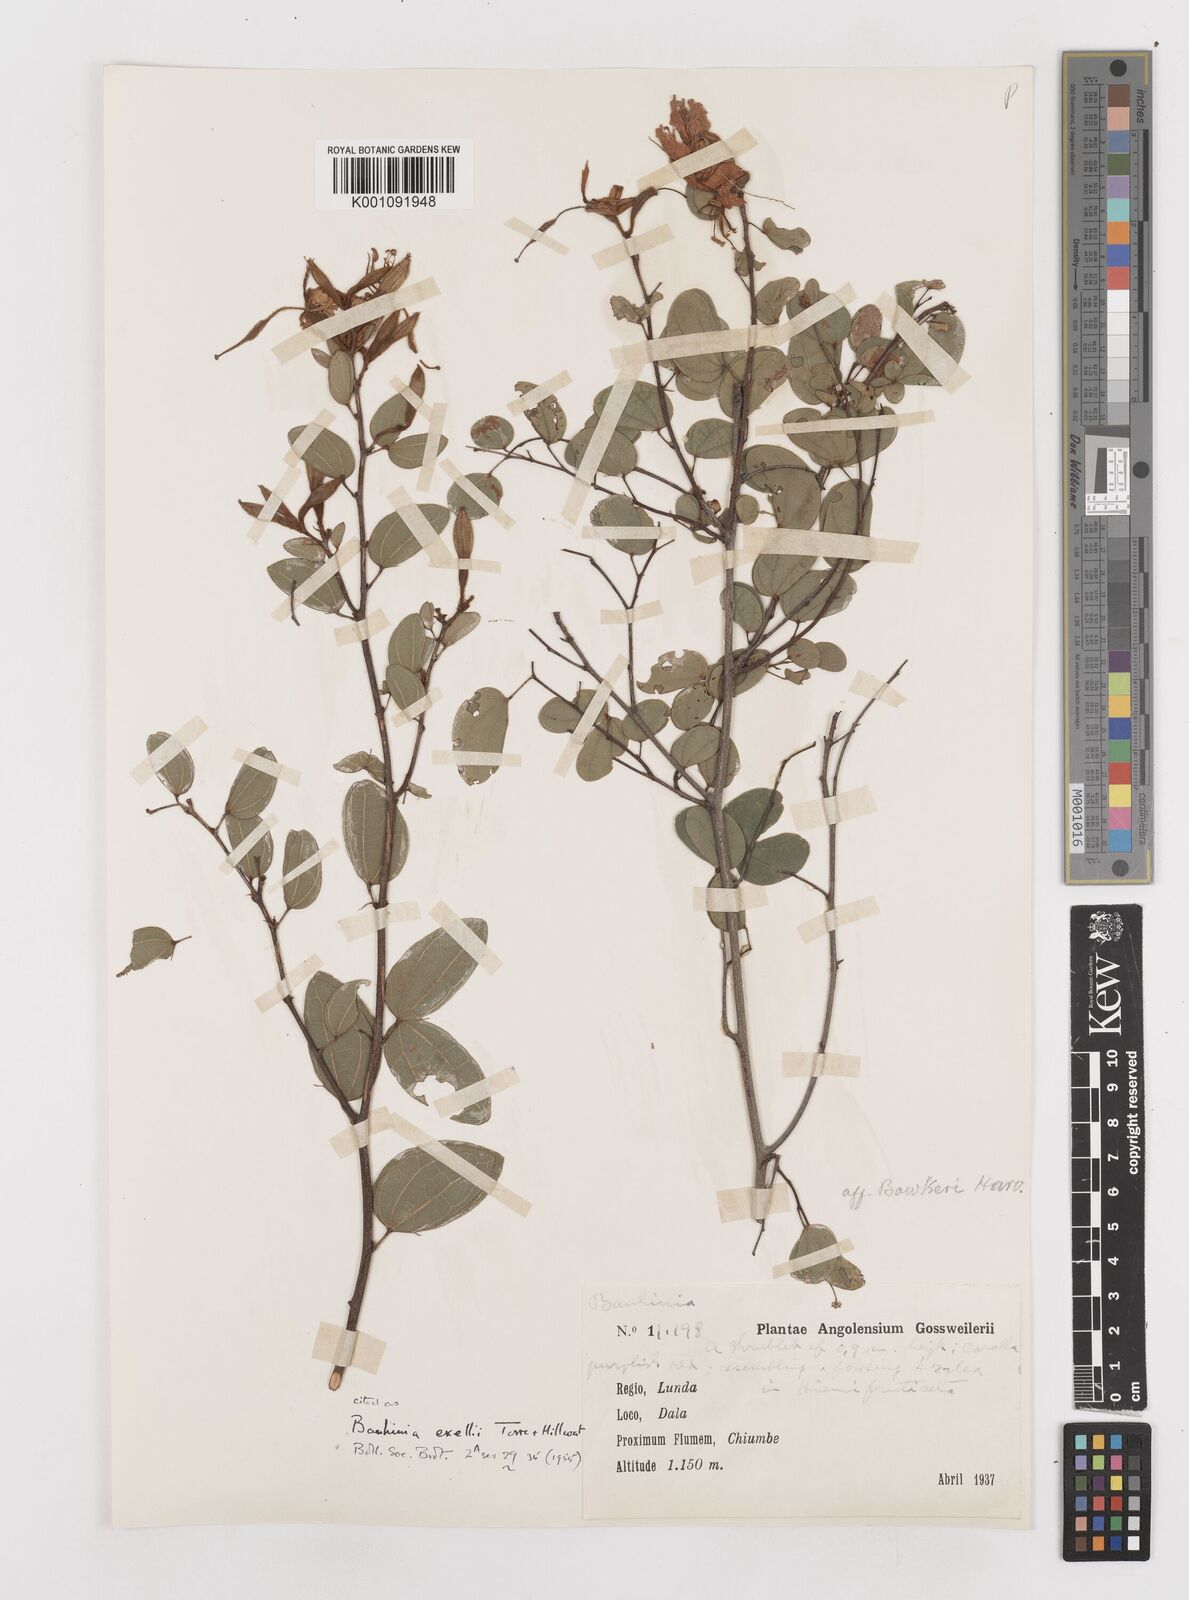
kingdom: Plantae
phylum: Tracheophyta
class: Magnoliopsida
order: Fabales
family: Fabaceae
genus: Bauhinia
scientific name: Bauhinia exellii
